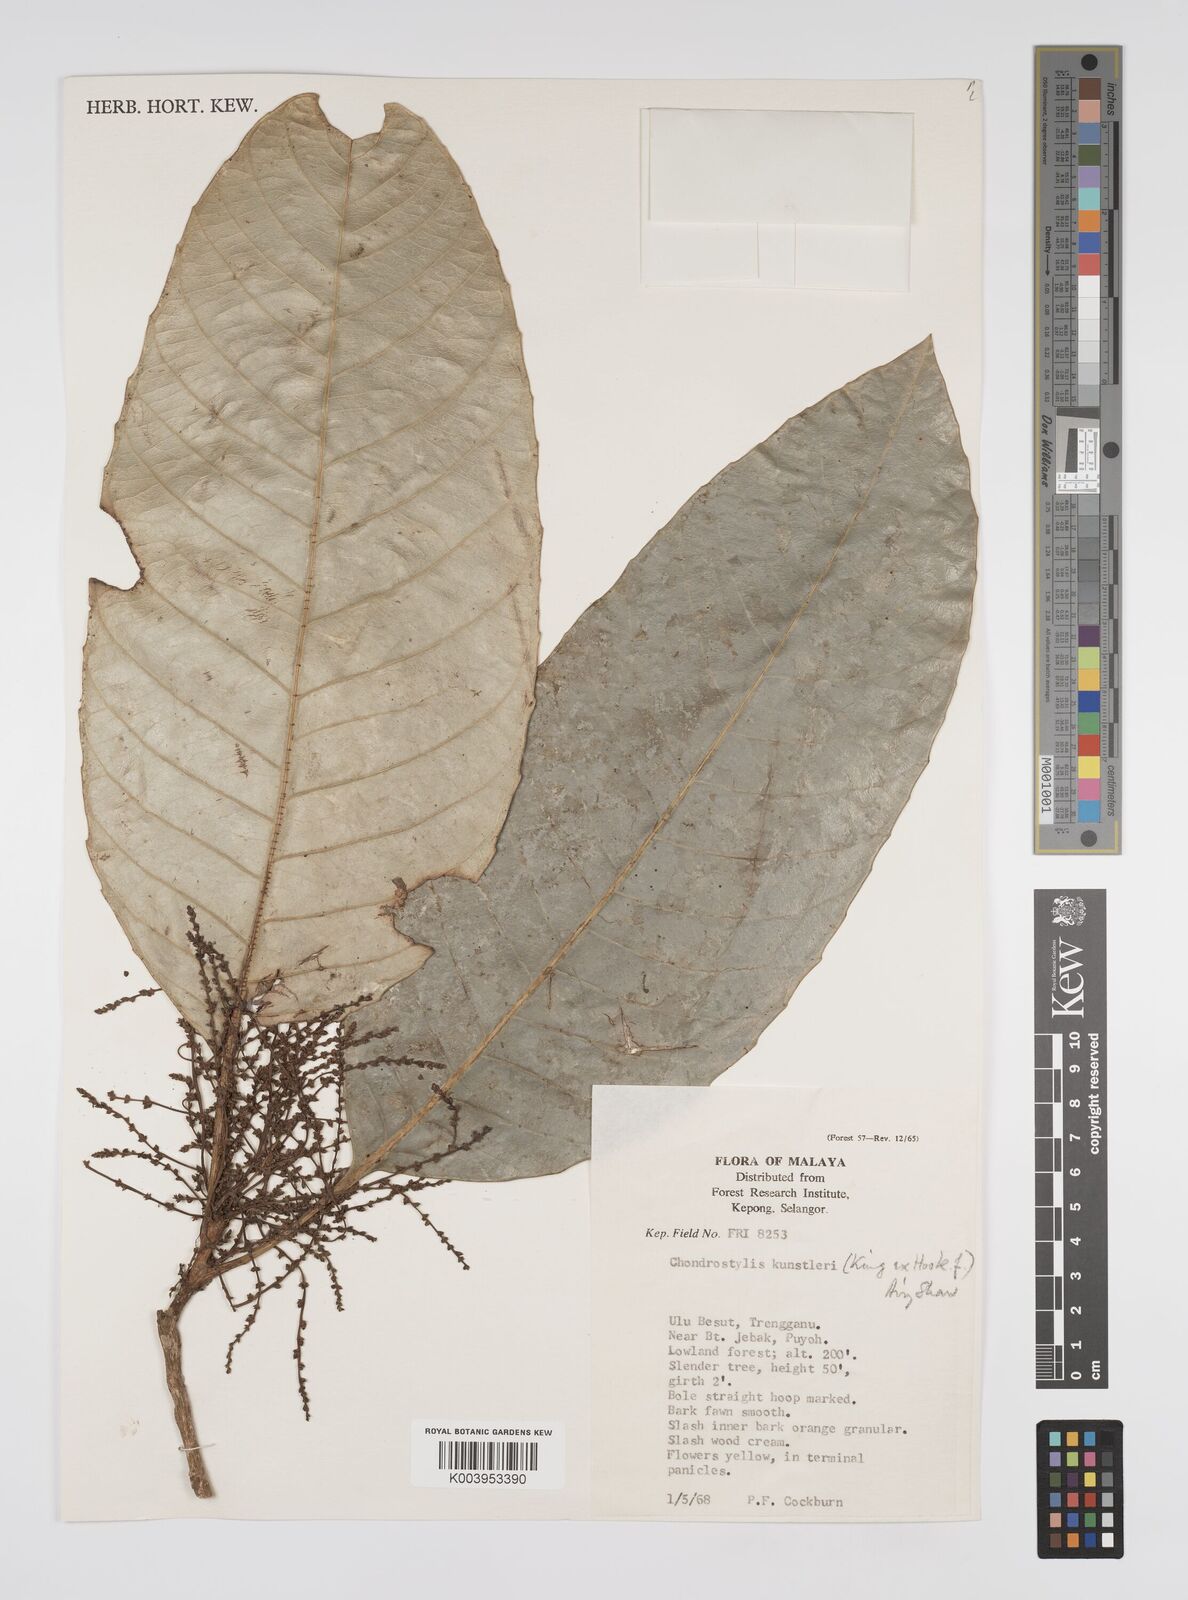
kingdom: Plantae
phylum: Tracheophyta
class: Magnoliopsida
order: Malpighiales
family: Euphorbiaceae
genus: Chondrostylis
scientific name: Chondrostylis kunstleri
